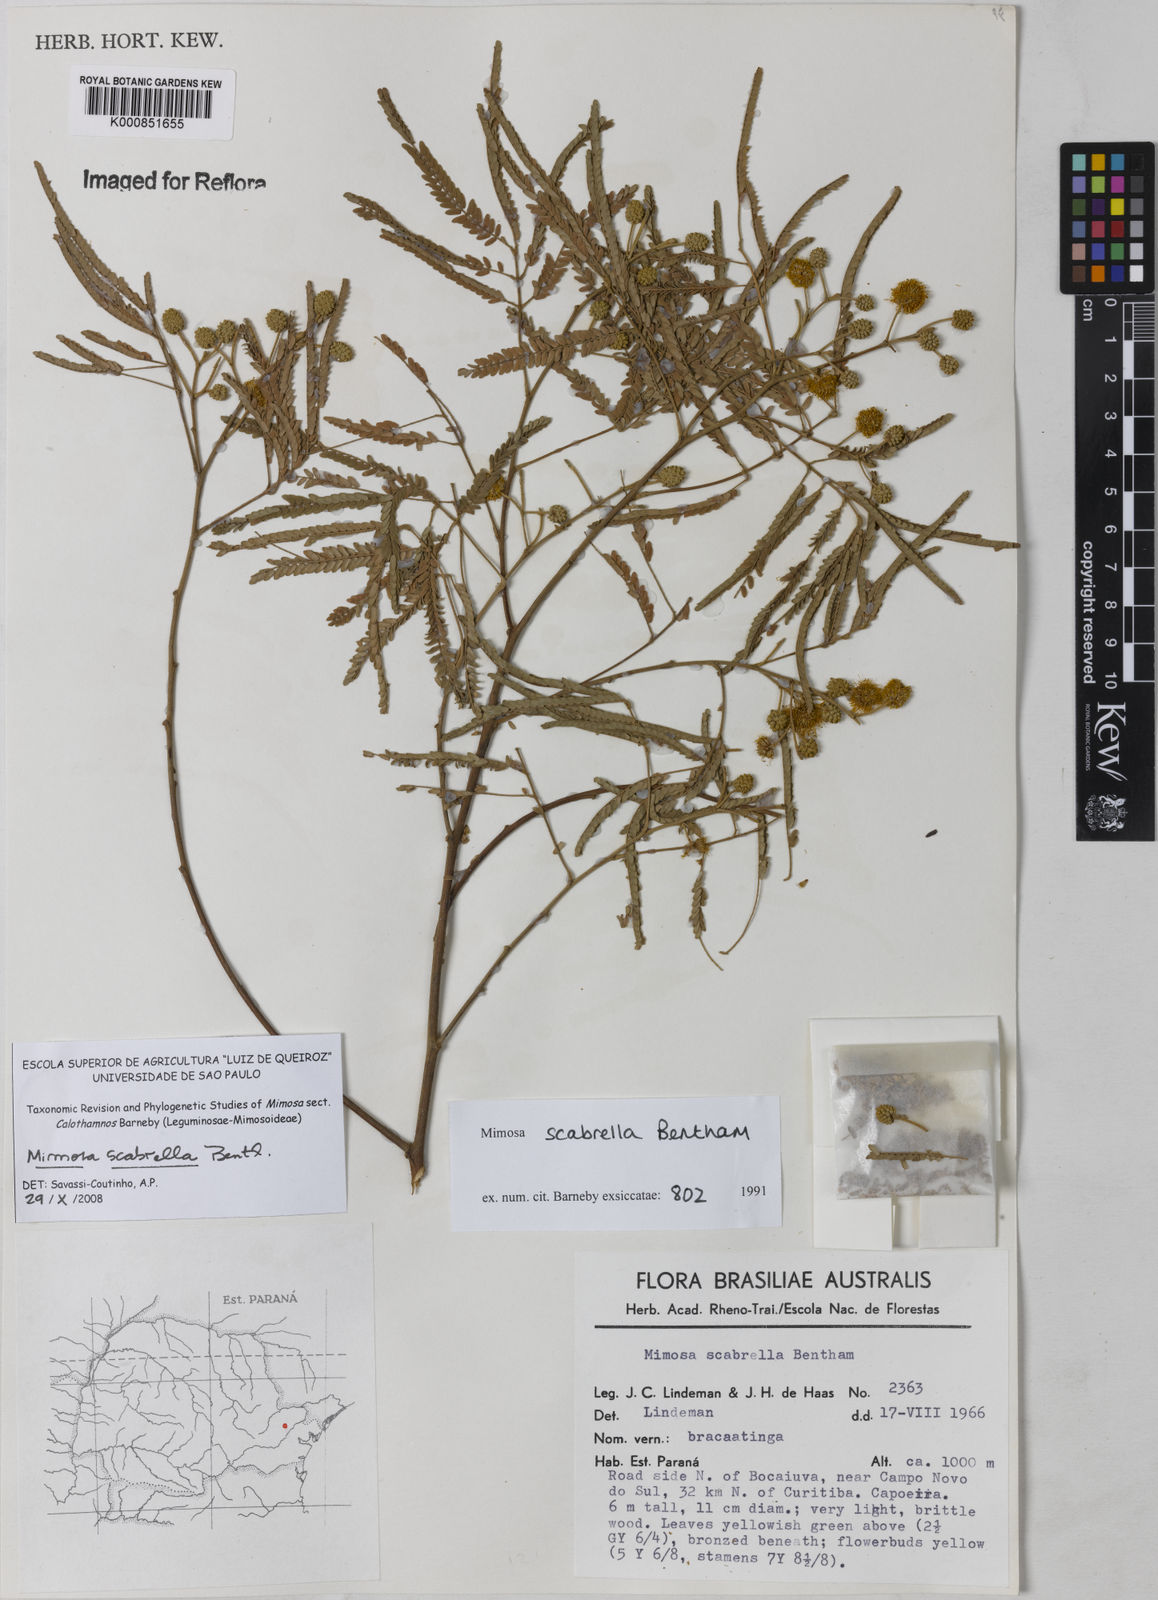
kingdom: Plantae
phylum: Tracheophyta
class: Magnoliopsida
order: Fabales
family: Fabaceae
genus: Mimosa
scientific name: Mimosa scabrella
